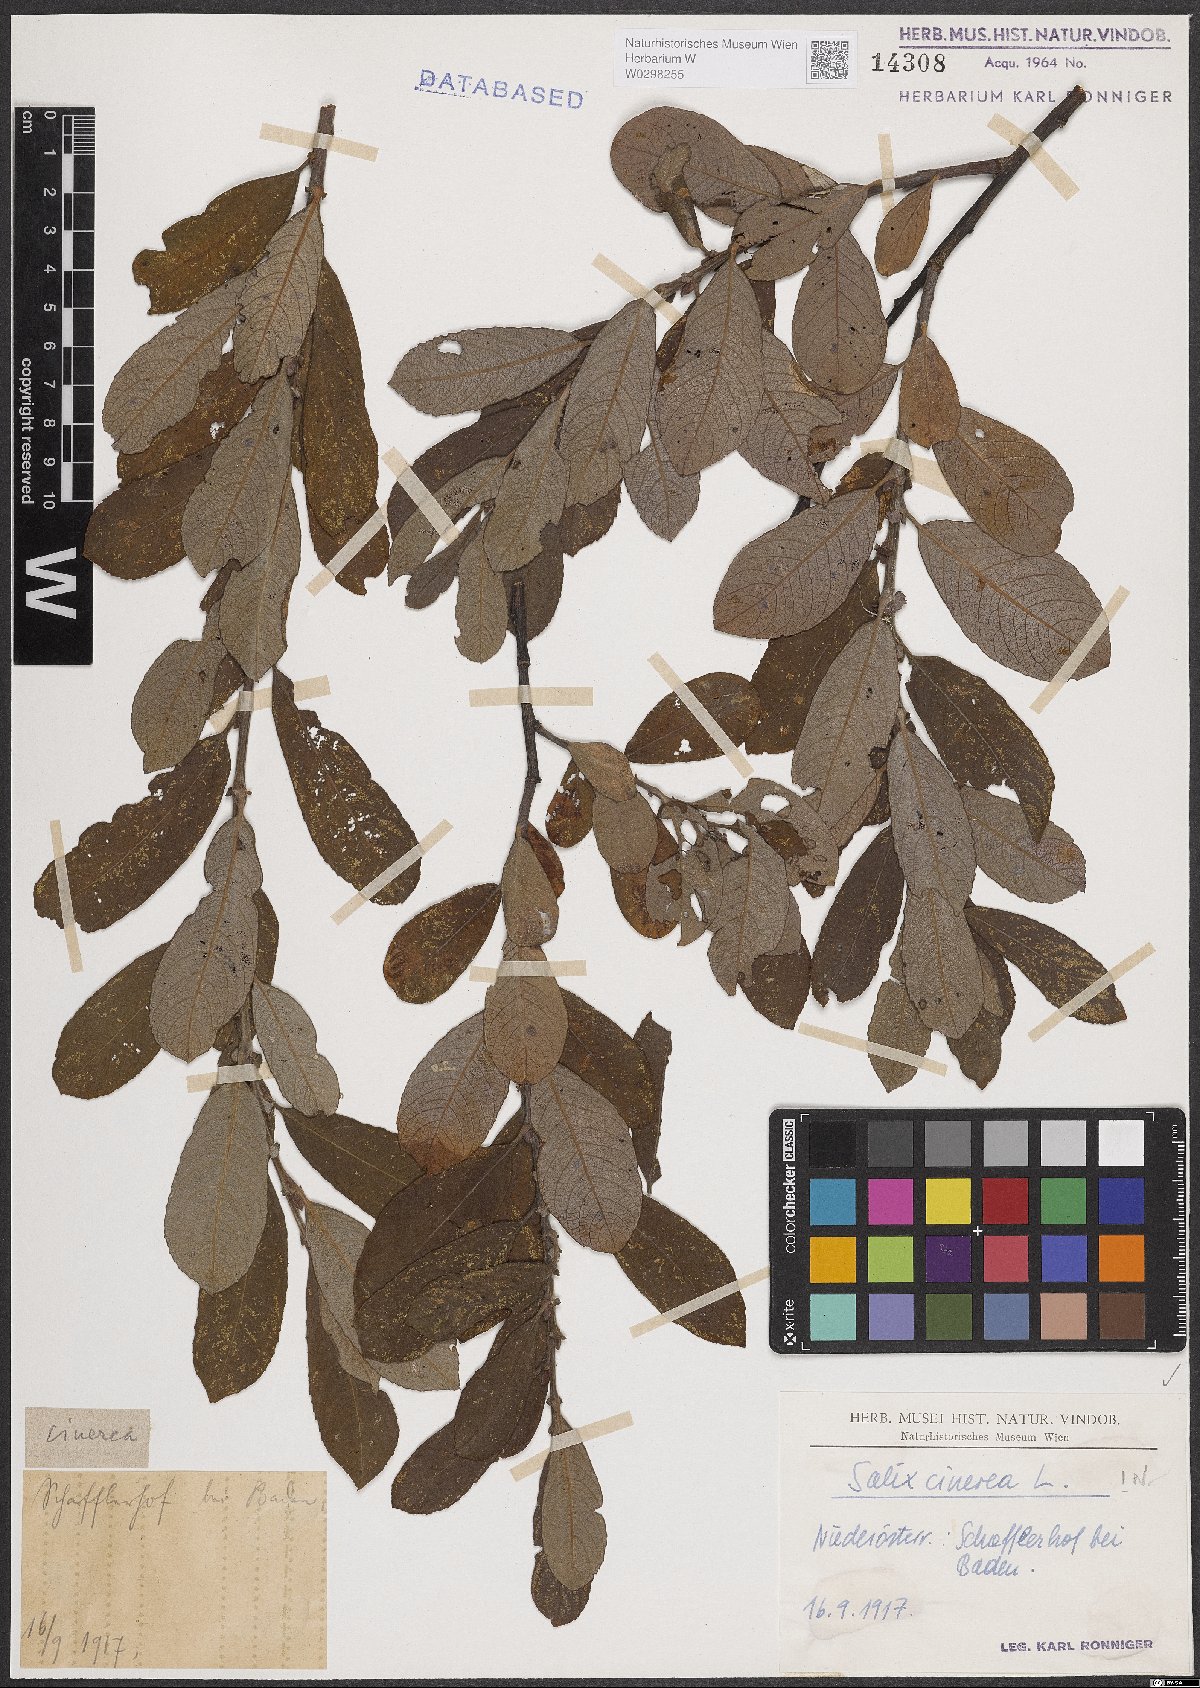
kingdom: Plantae
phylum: Tracheophyta
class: Magnoliopsida
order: Malpighiales
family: Salicaceae
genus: Salix
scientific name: Salix cinerea
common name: Common sallow
